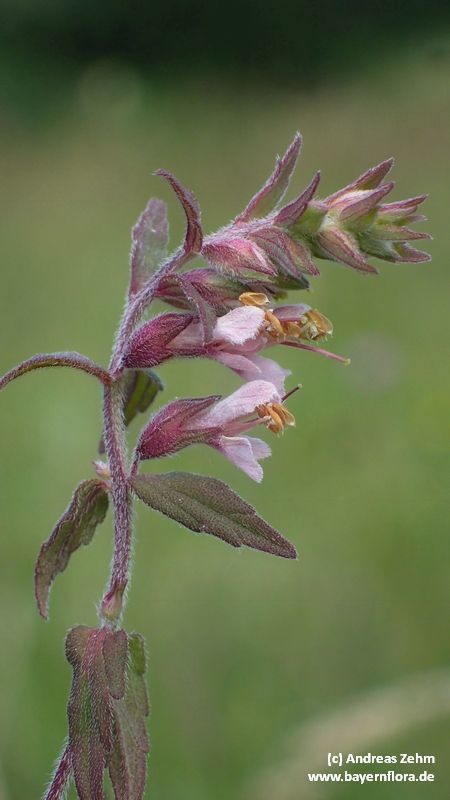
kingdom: Plantae
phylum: Tracheophyta
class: Magnoliopsida
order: Lamiales
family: Orobanchaceae
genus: Odontites
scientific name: Odontites
